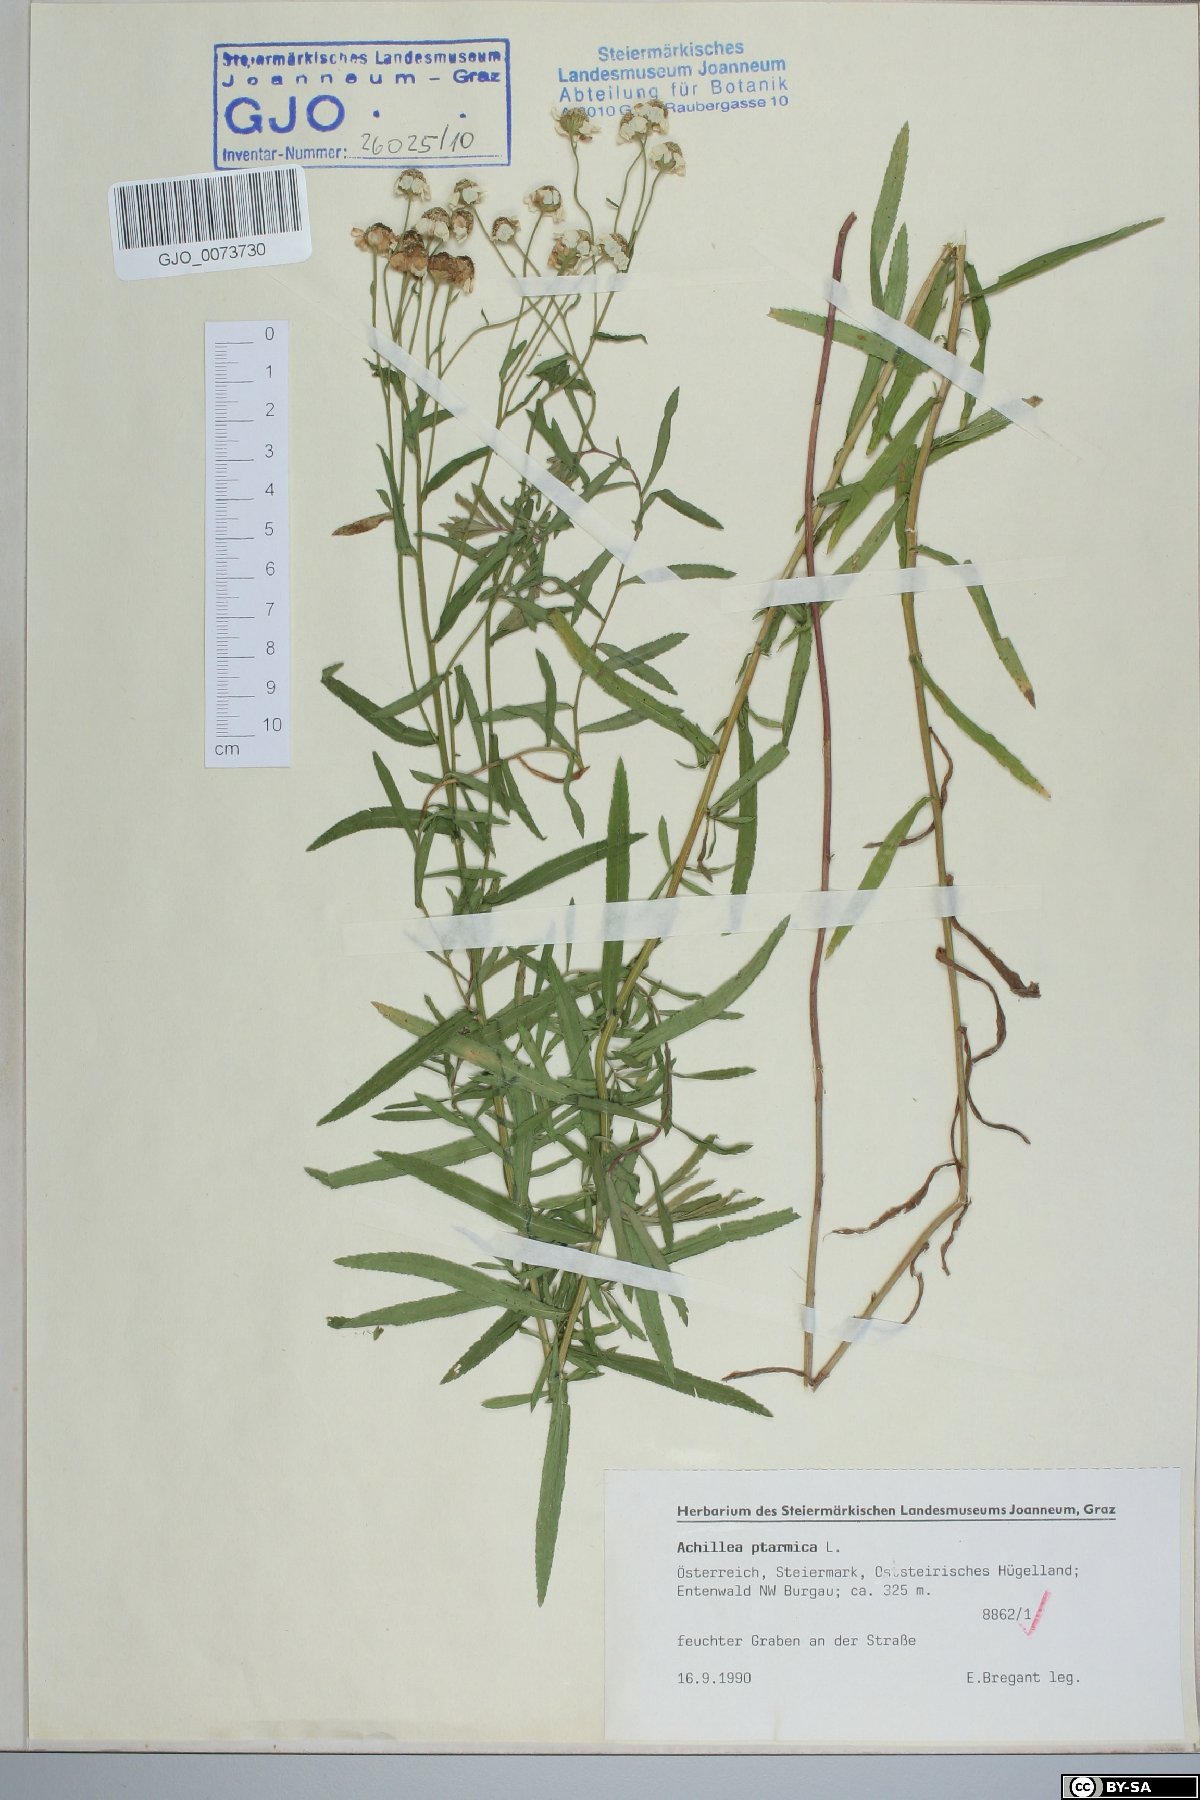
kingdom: Plantae
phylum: Tracheophyta
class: Magnoliopsida
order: Asterales
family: Asteraceae
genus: Achillea
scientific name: Achillea ptarmica
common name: Sneezeweed
